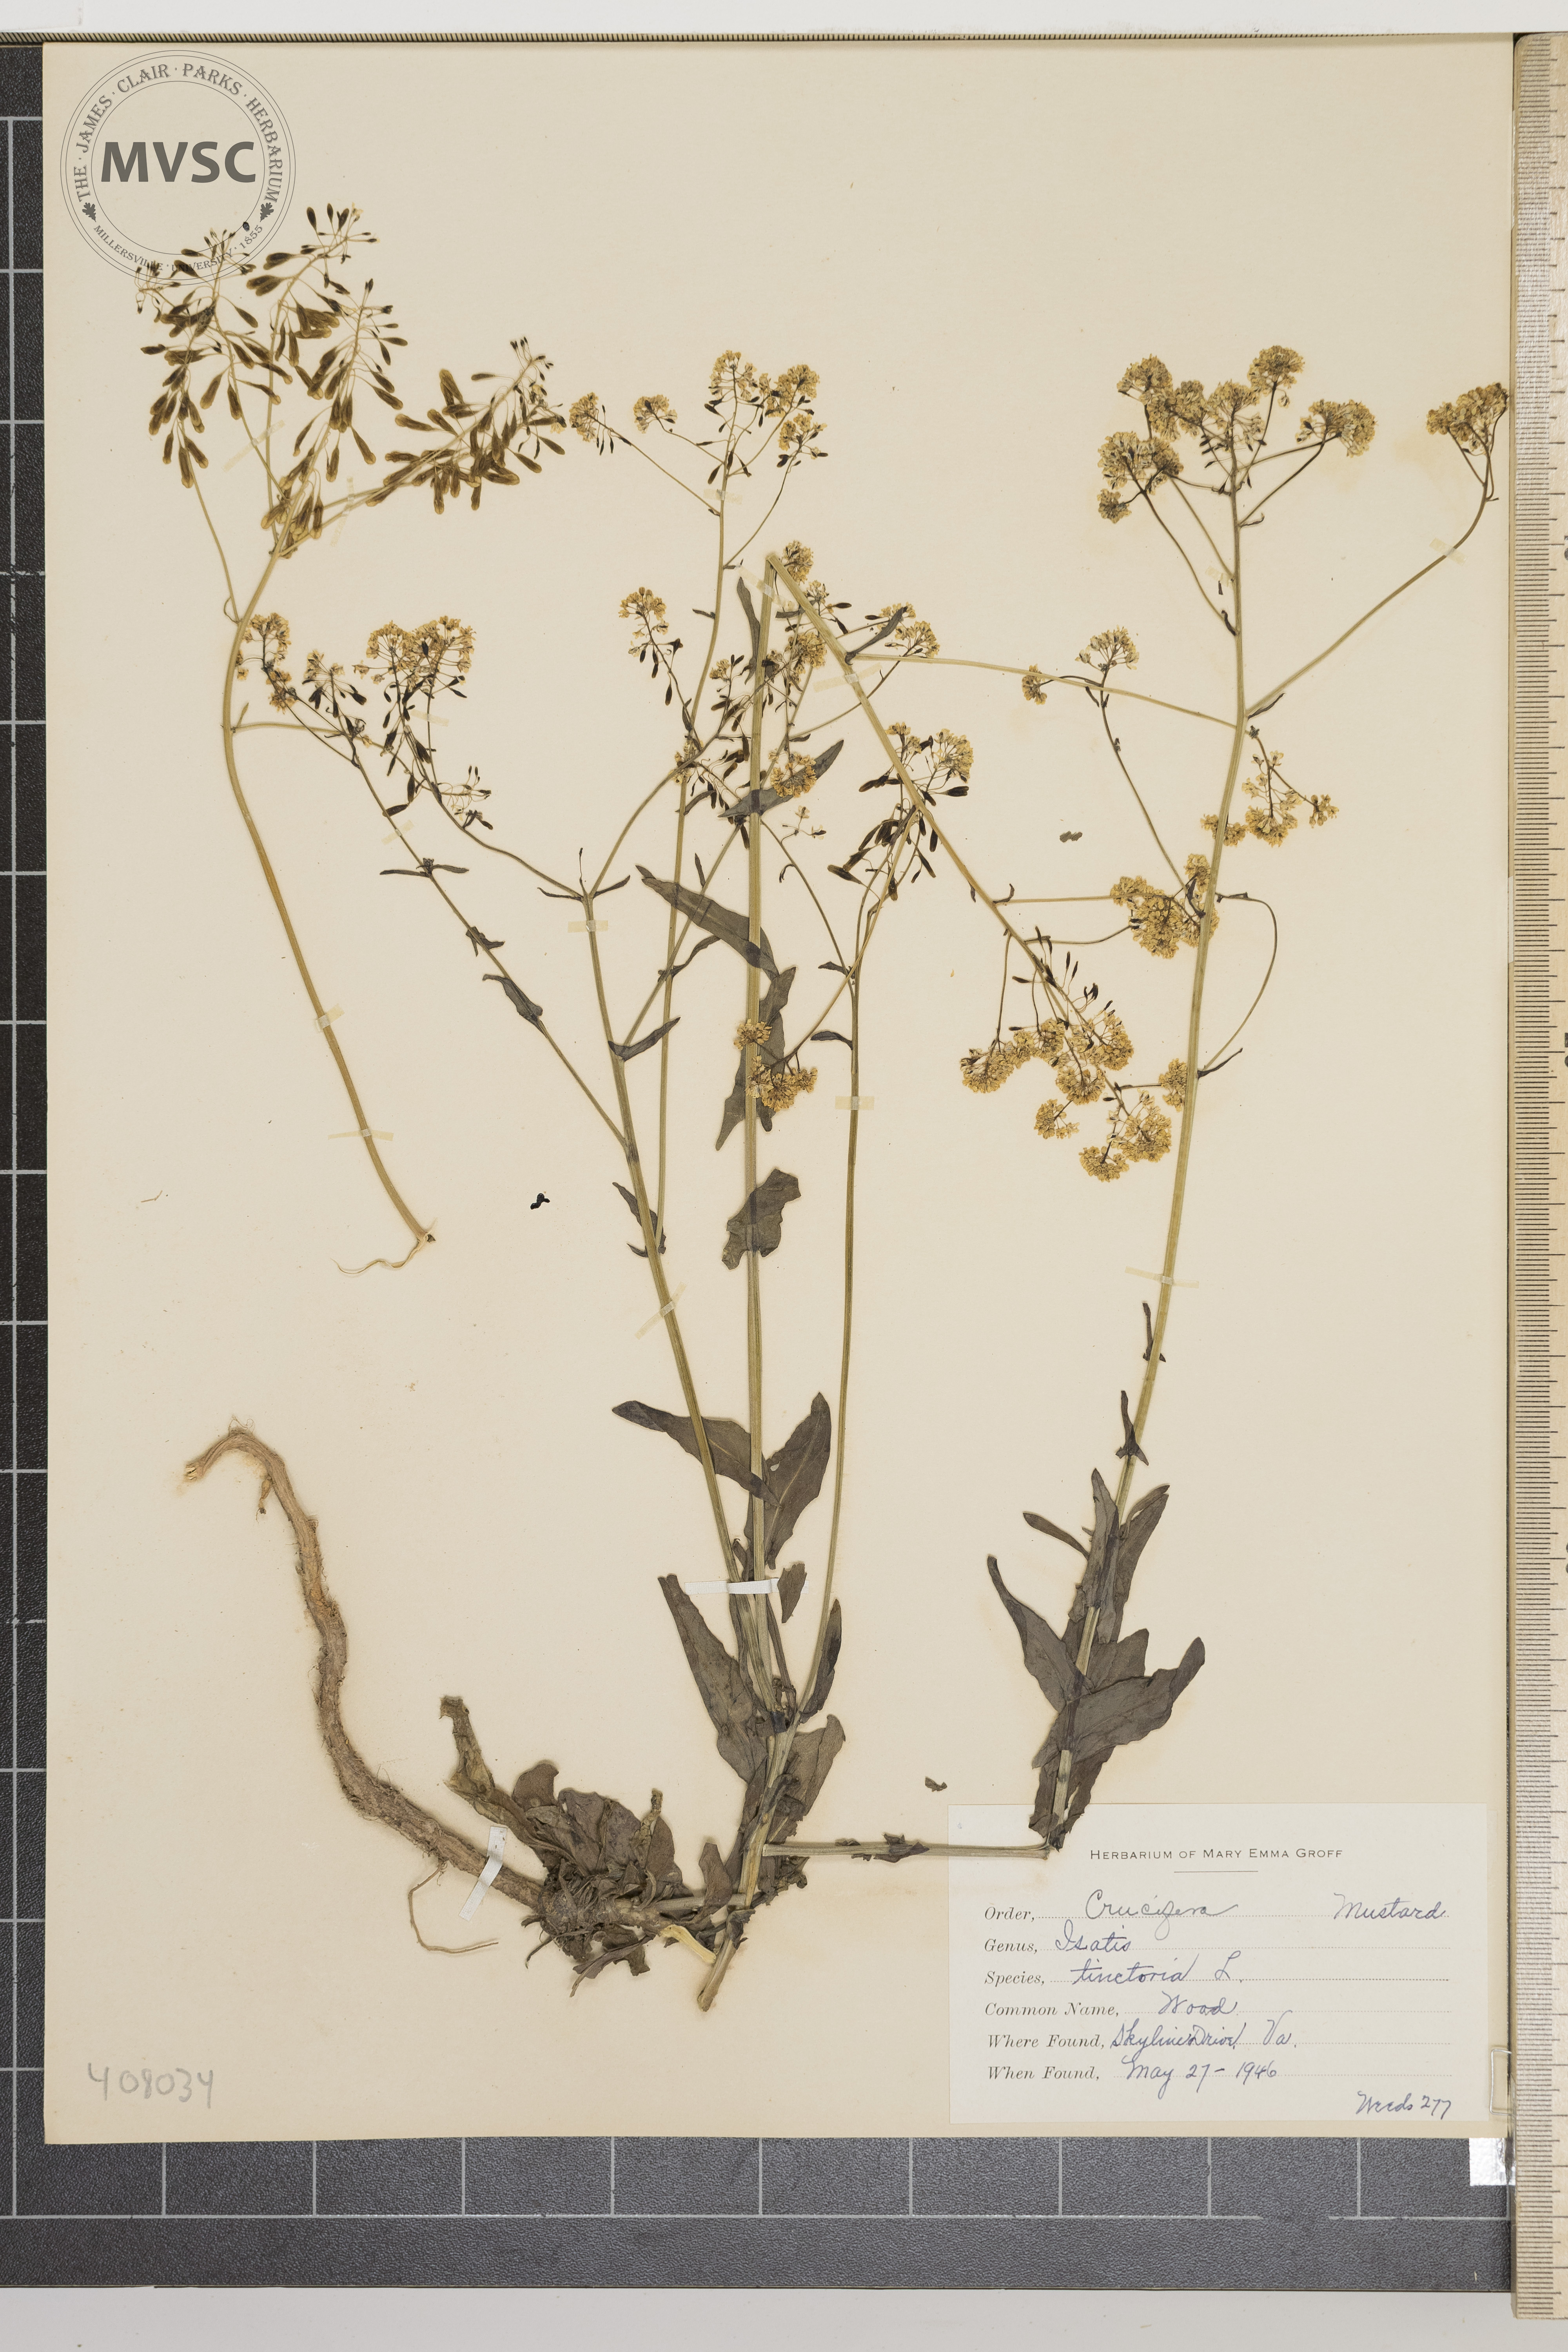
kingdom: Plantae
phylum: Tracheophyta
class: Magnoliopsida
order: Brassicales
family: Brassicaceae
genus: Isatis
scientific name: Isatis tinctoria
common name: Woad
